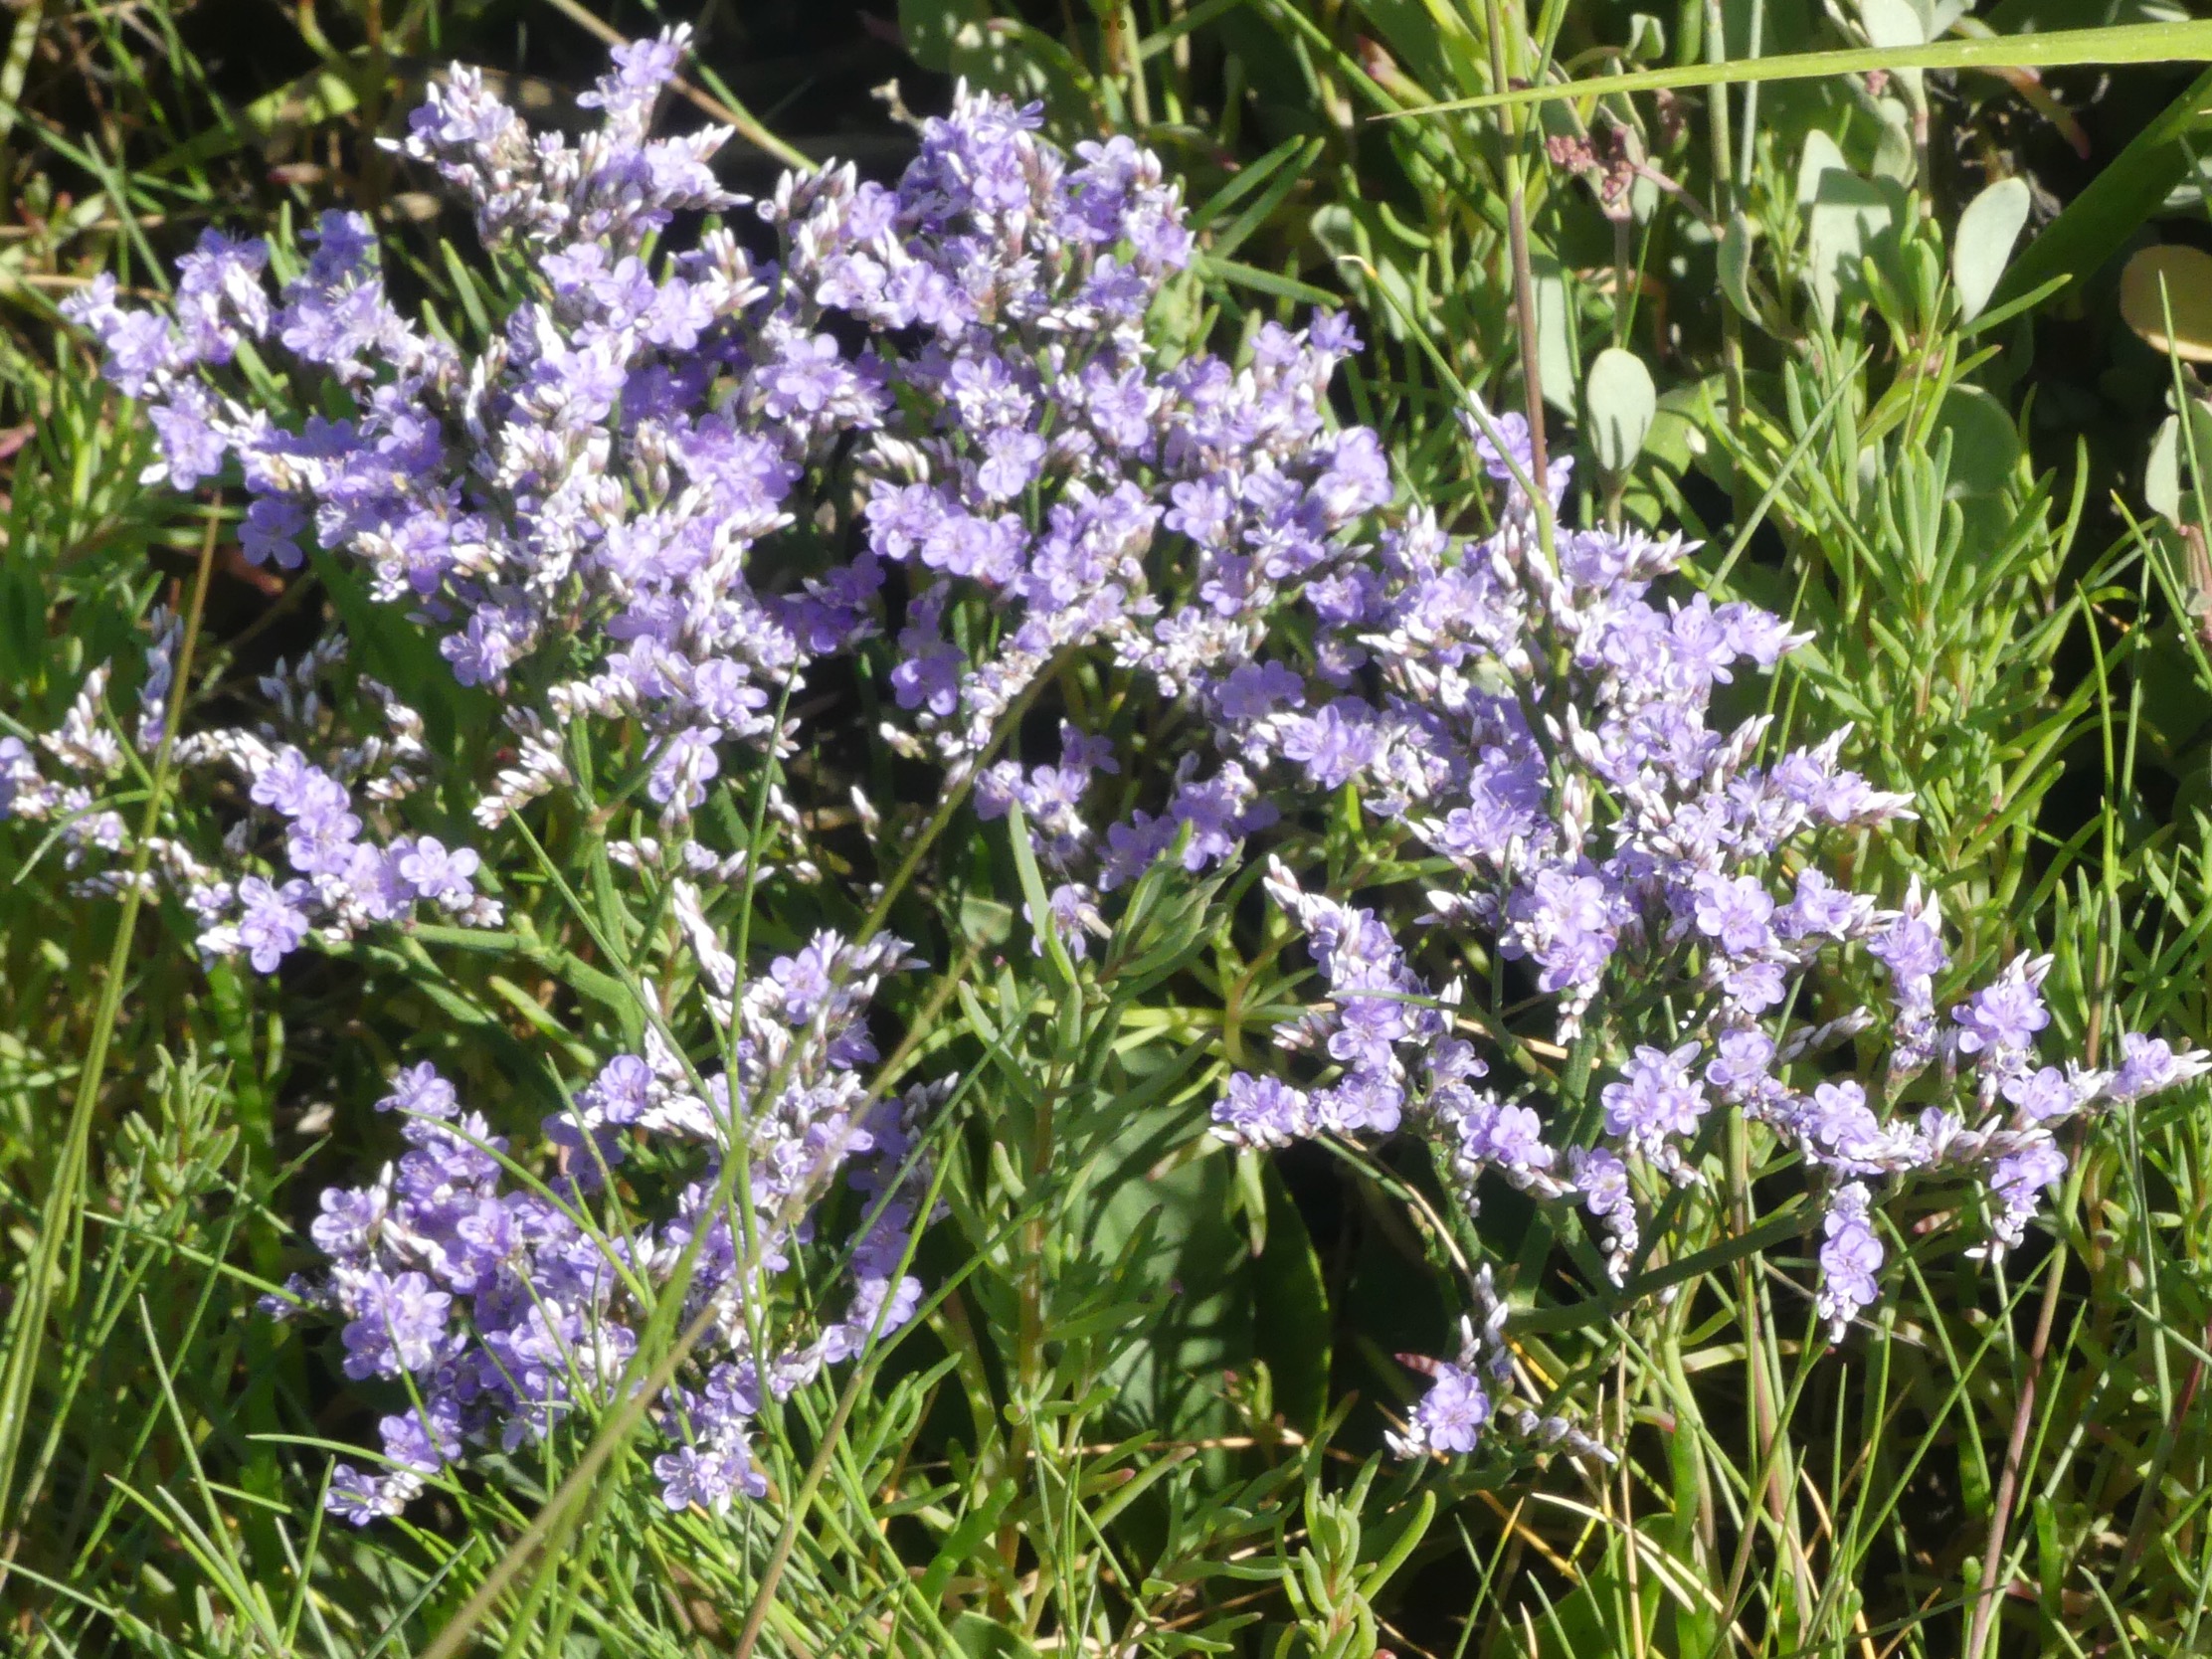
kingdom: Plantae
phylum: Tracheophyta
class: Magnoliopsida
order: Caryophyllales
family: Plumbaginaceae
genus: Limonium
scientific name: Limonium vulgare
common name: Tætblomstret hindebæger
